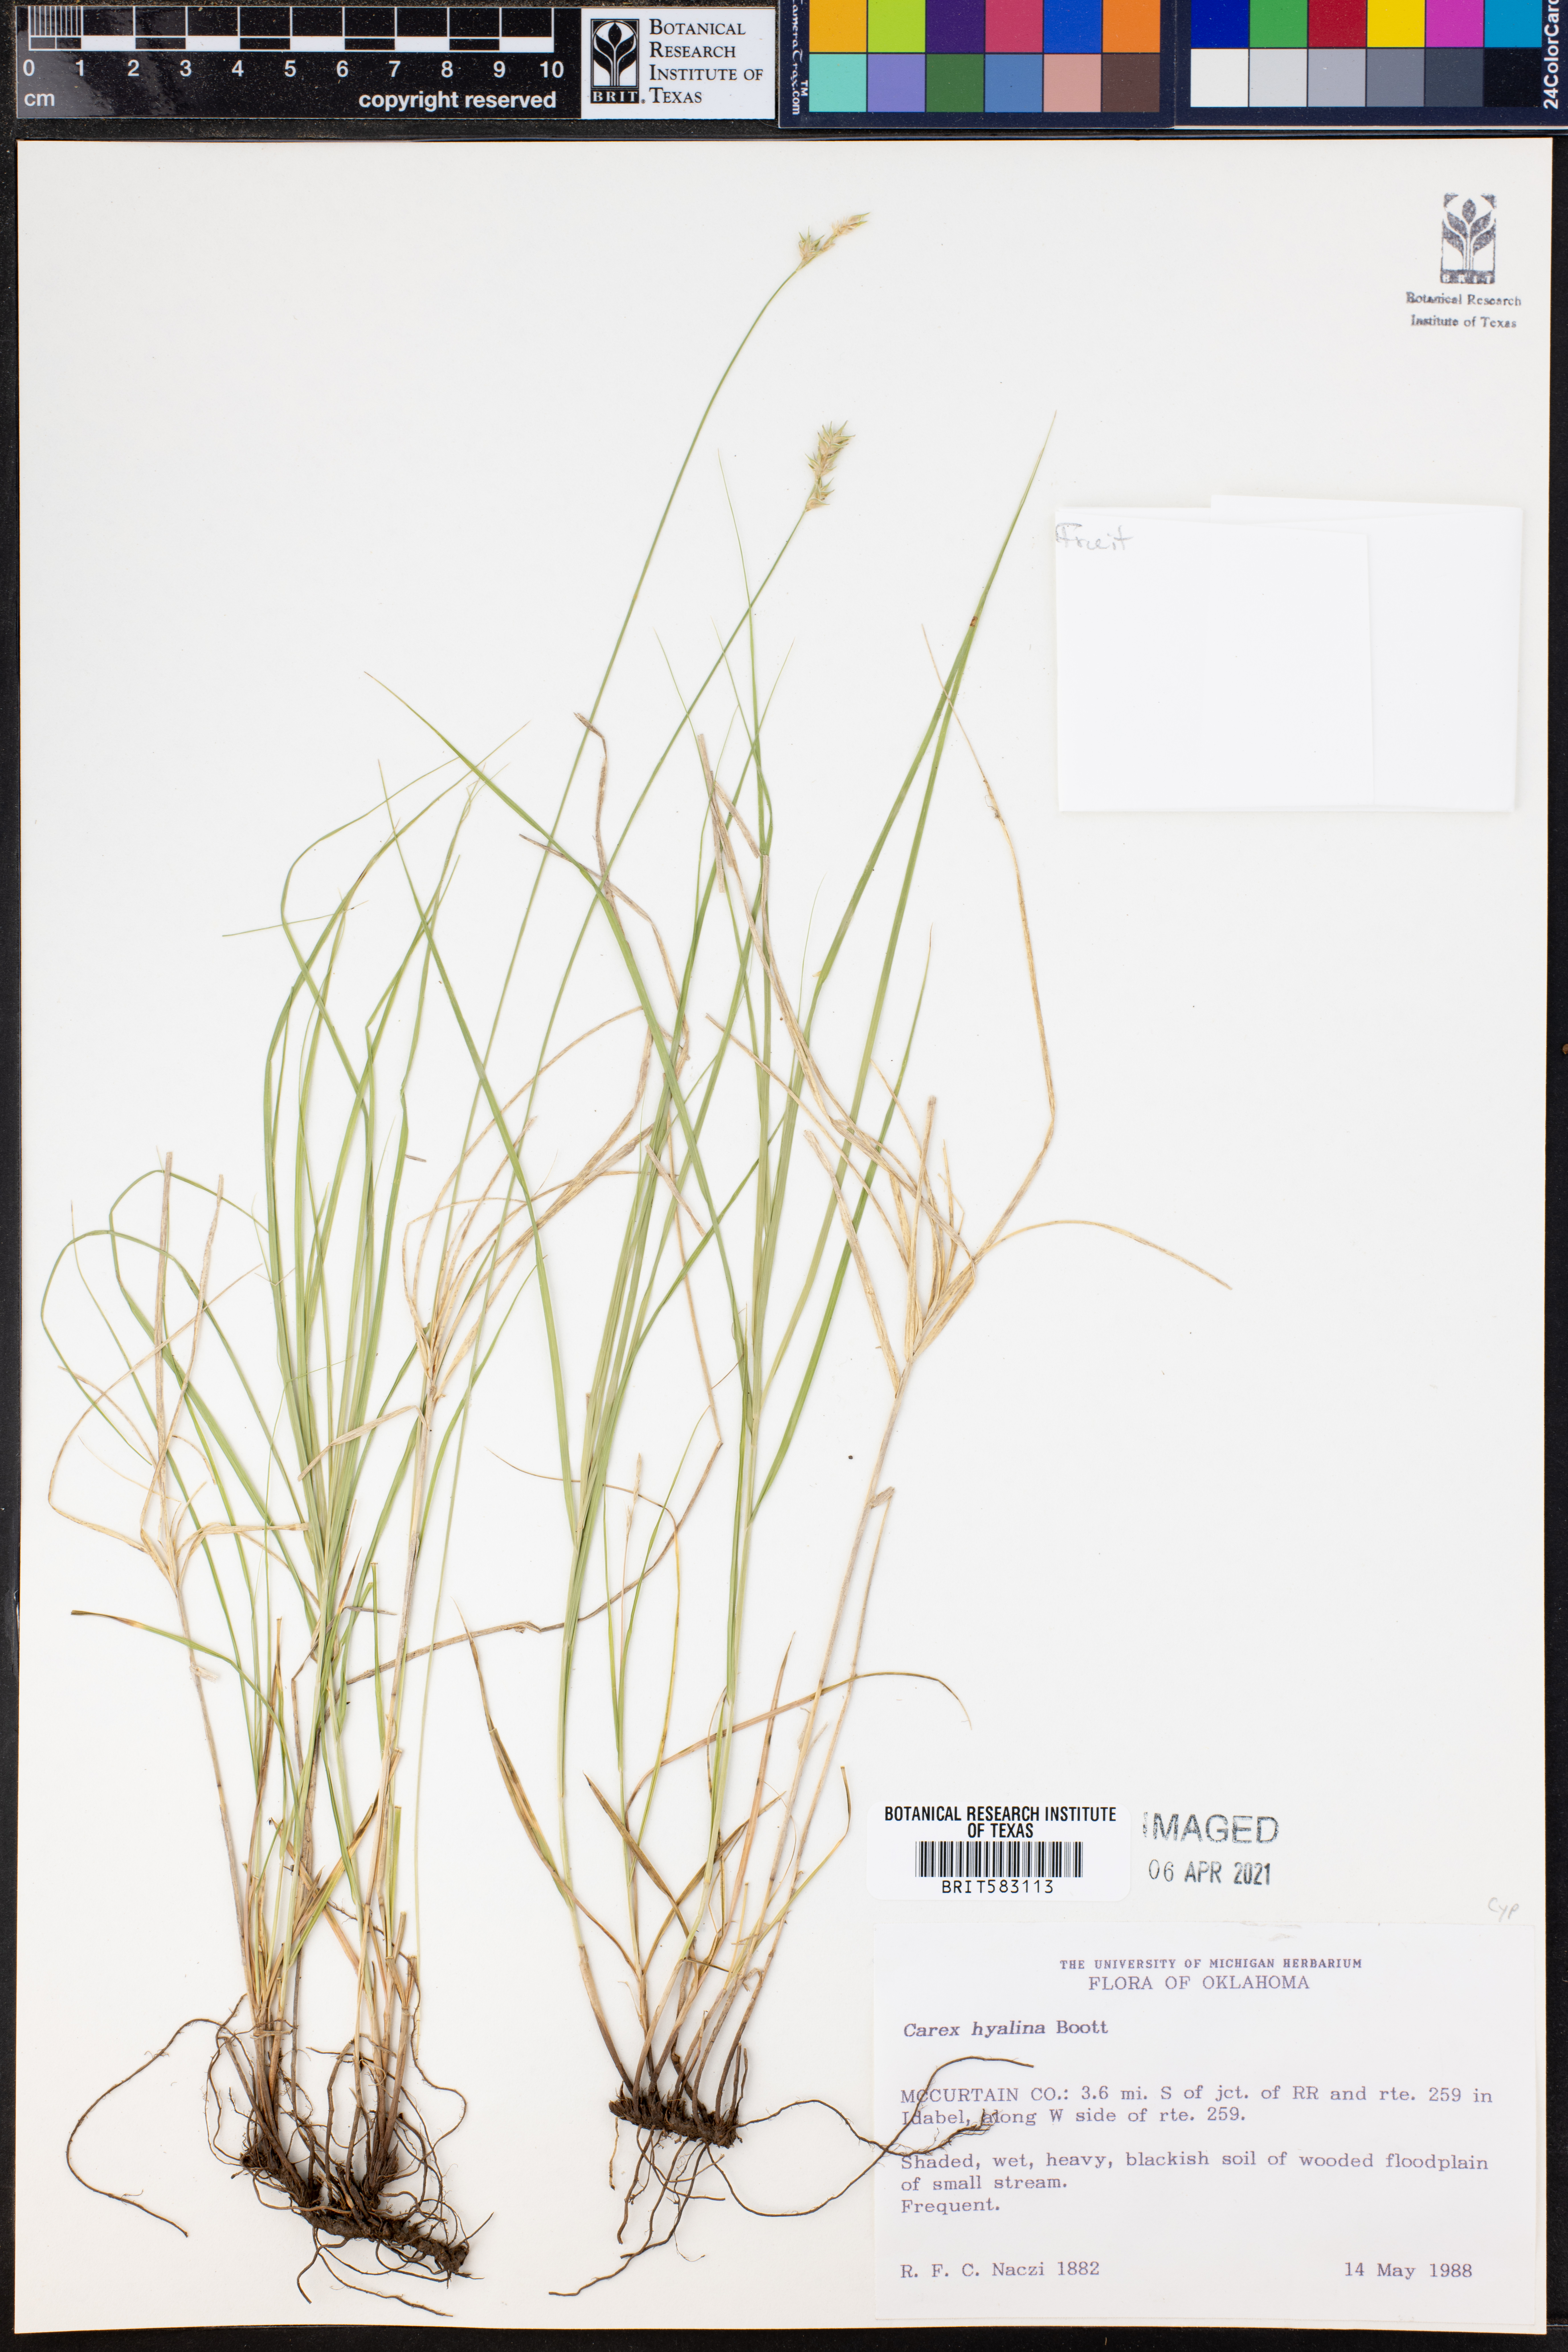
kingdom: Plantae
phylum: Tracheophyta
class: Liliopsida
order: Poales
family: Cyperaceae
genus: Carex
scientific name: Carex hyalina
